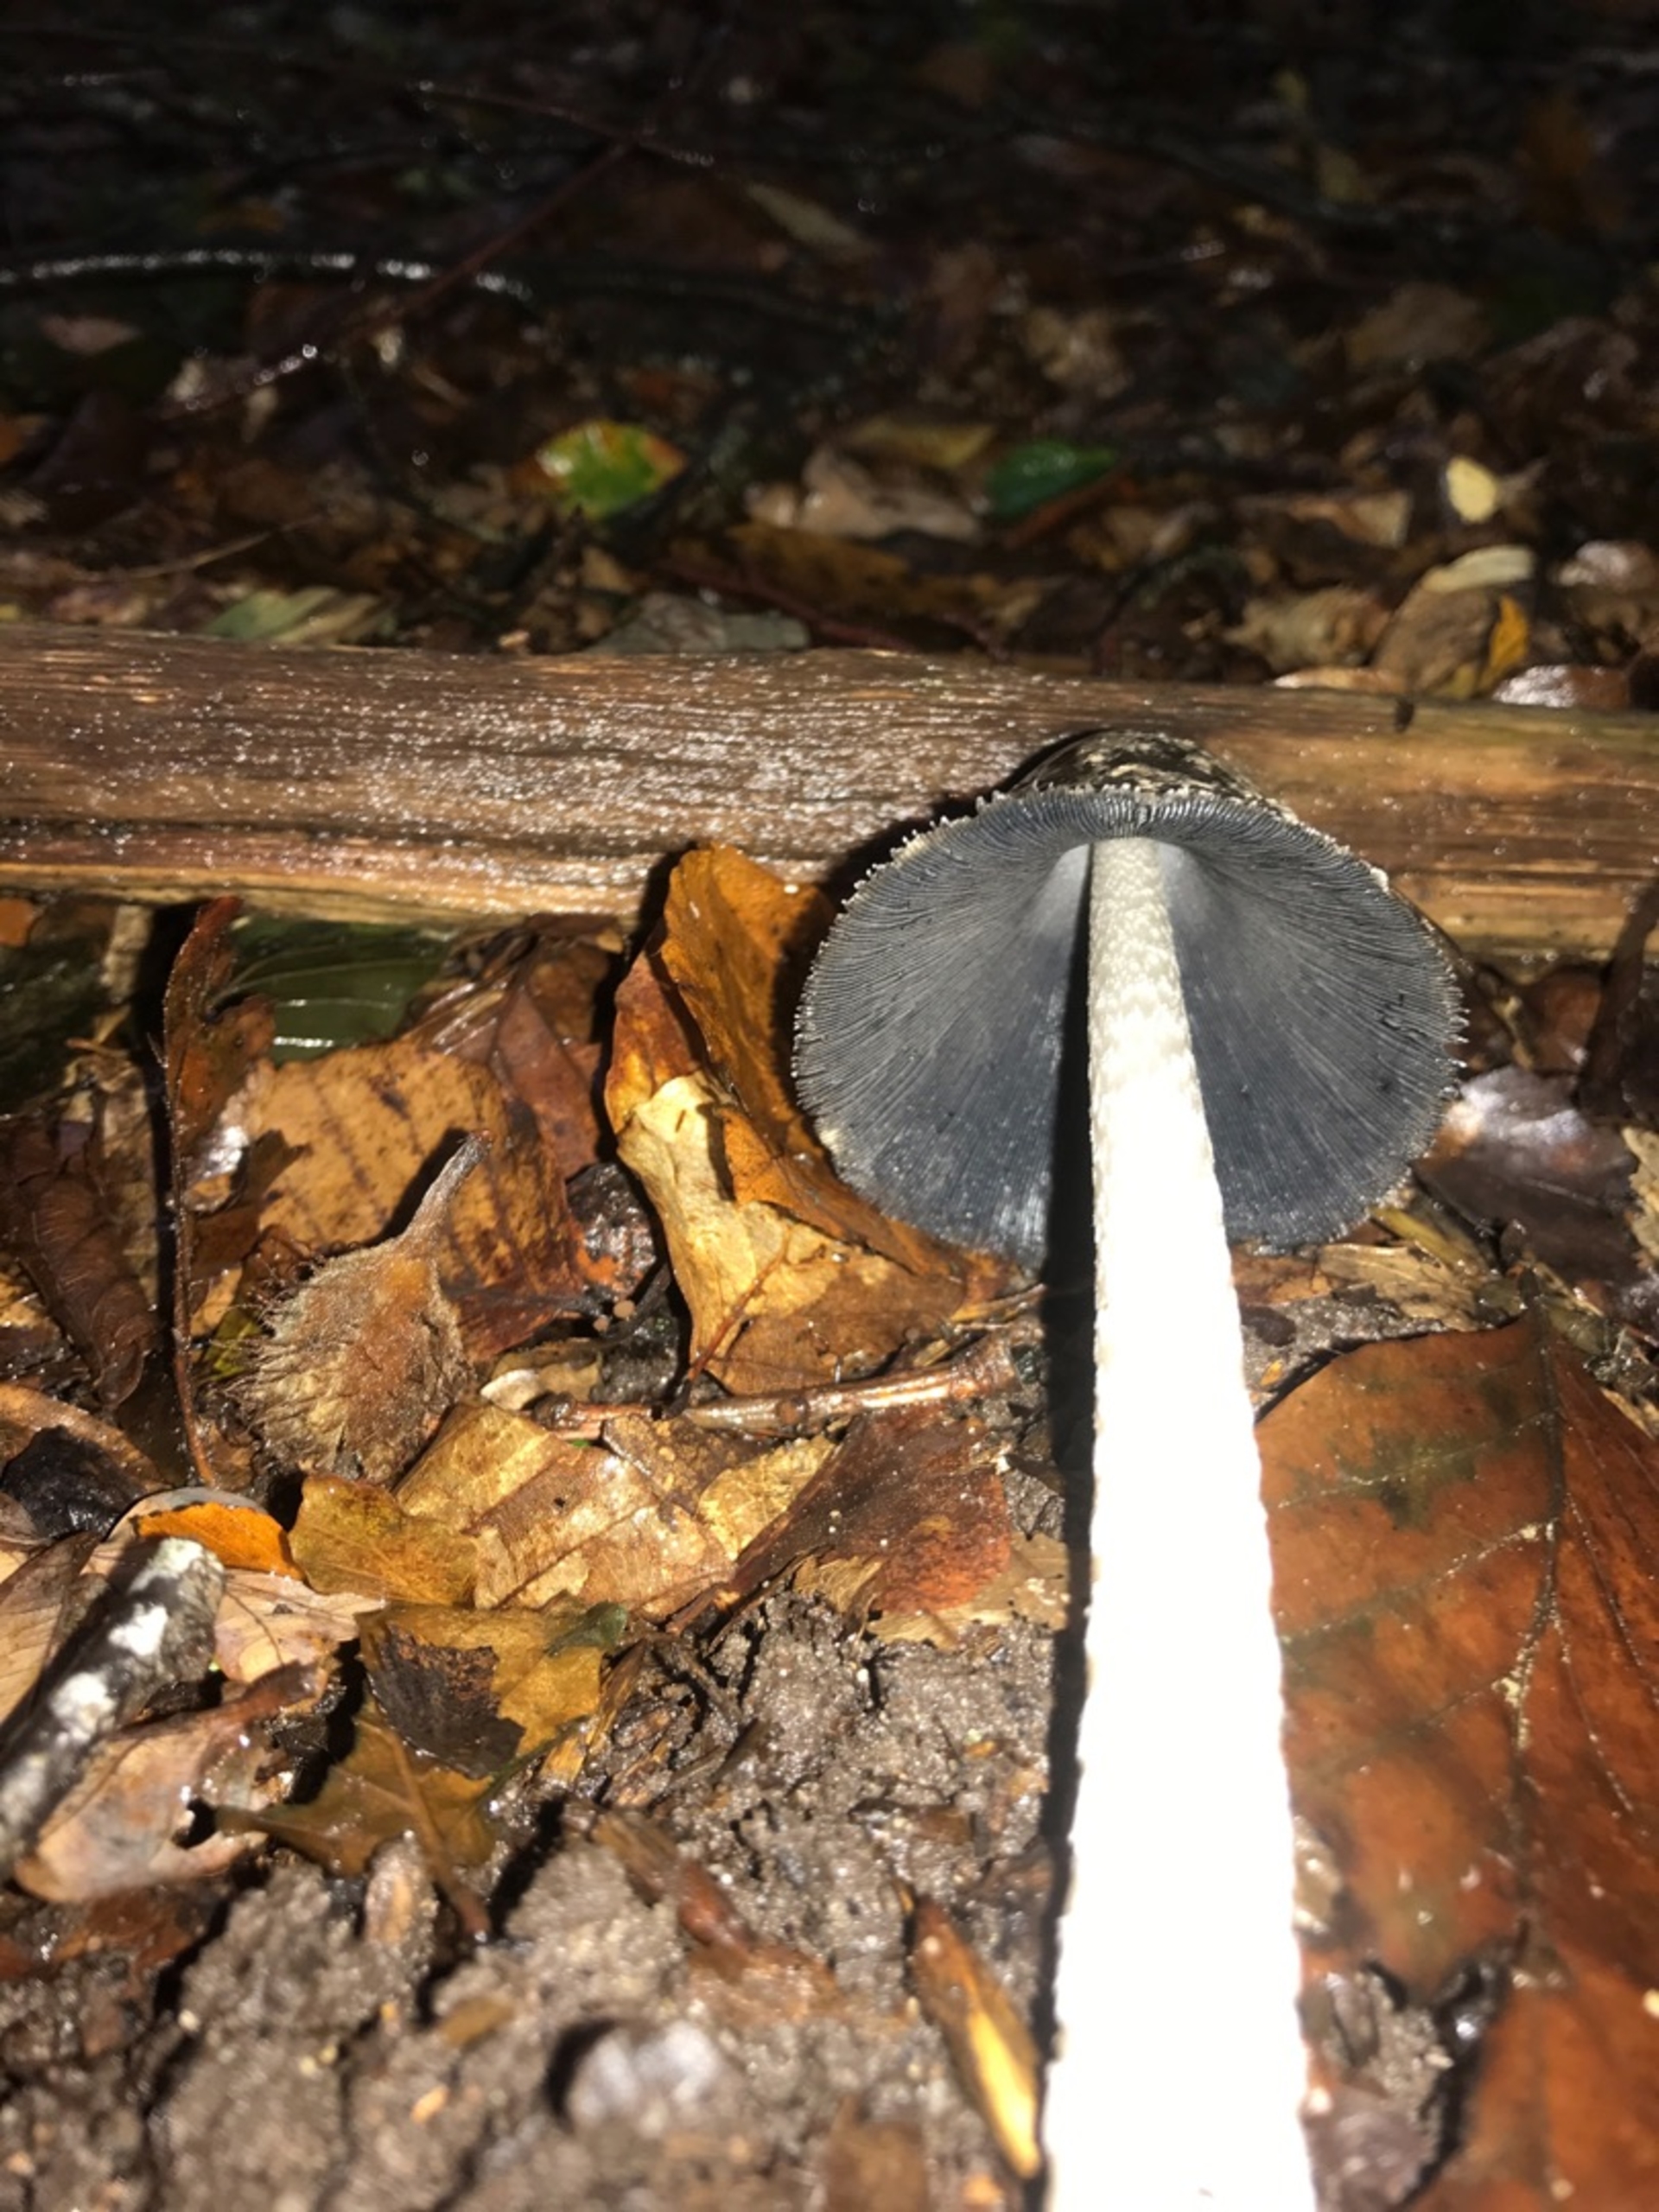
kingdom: Fungi
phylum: Basidiomycota
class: Agaricomycetes
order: Agaricales
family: Psathyrellaceae
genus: Coprinopsis
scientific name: Coprinopsis picacea
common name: Skade-blækhat
